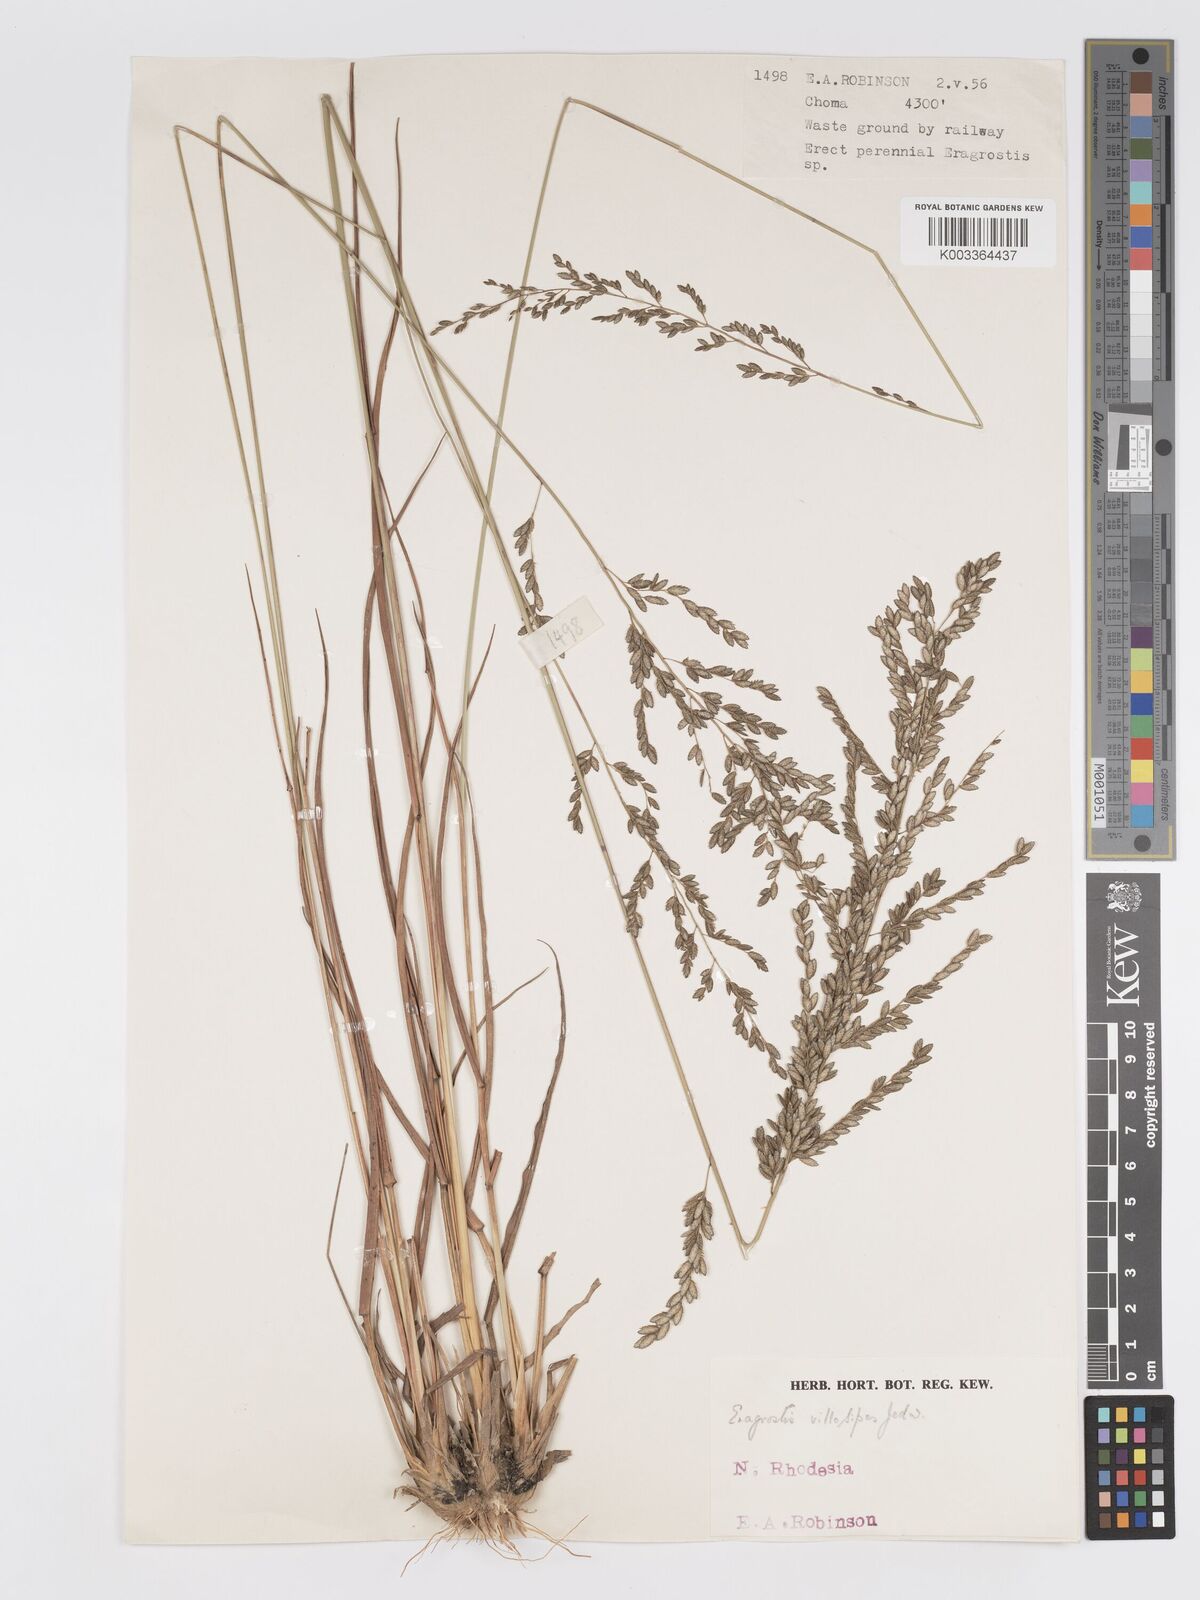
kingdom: Plantae
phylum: Tracheophyta
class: Liliopsida
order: Poales
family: Poaceae
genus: Eragrostis
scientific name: Eragrostis sclerantha
